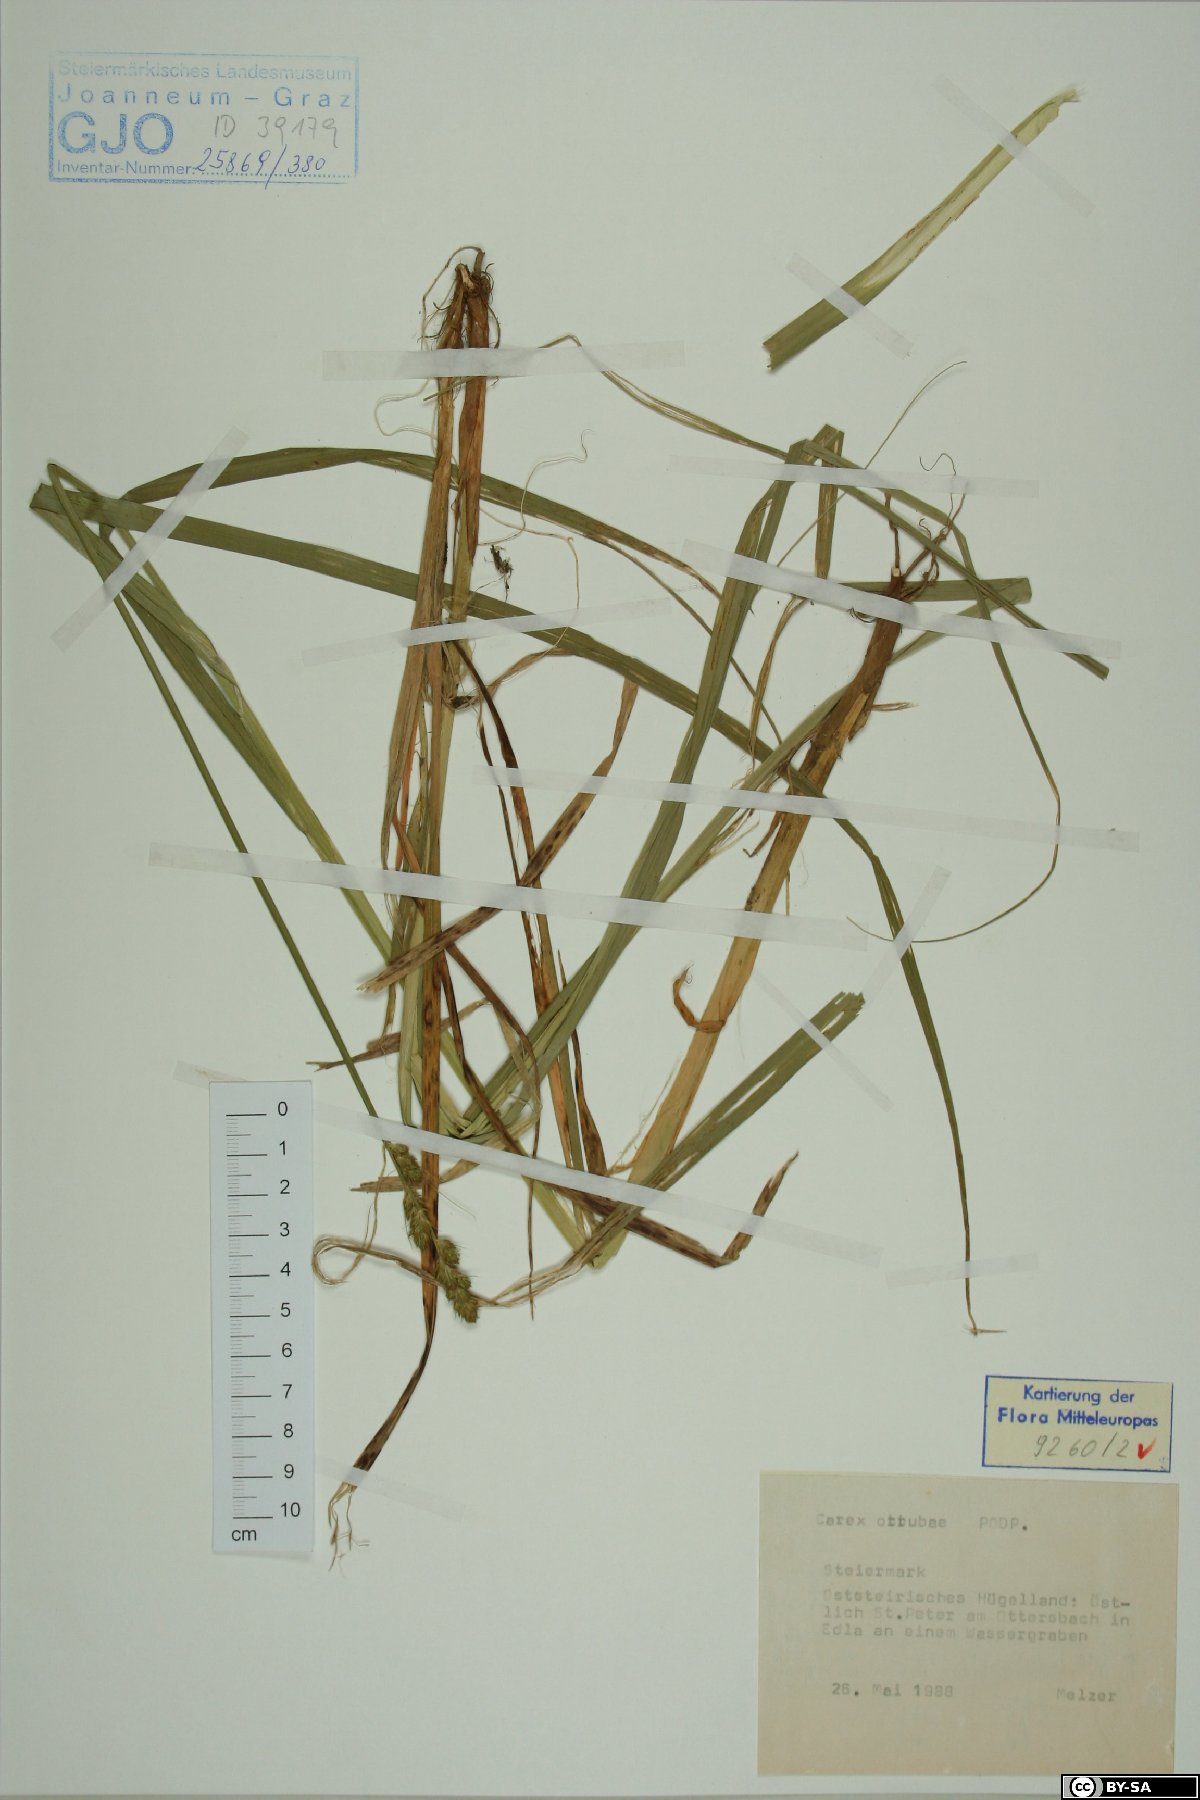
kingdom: Plantae
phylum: Tracheophyta
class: Liliopsida
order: Poales
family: Cyperaceae
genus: Carex
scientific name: Carex otrubae
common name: False fox-sedge
